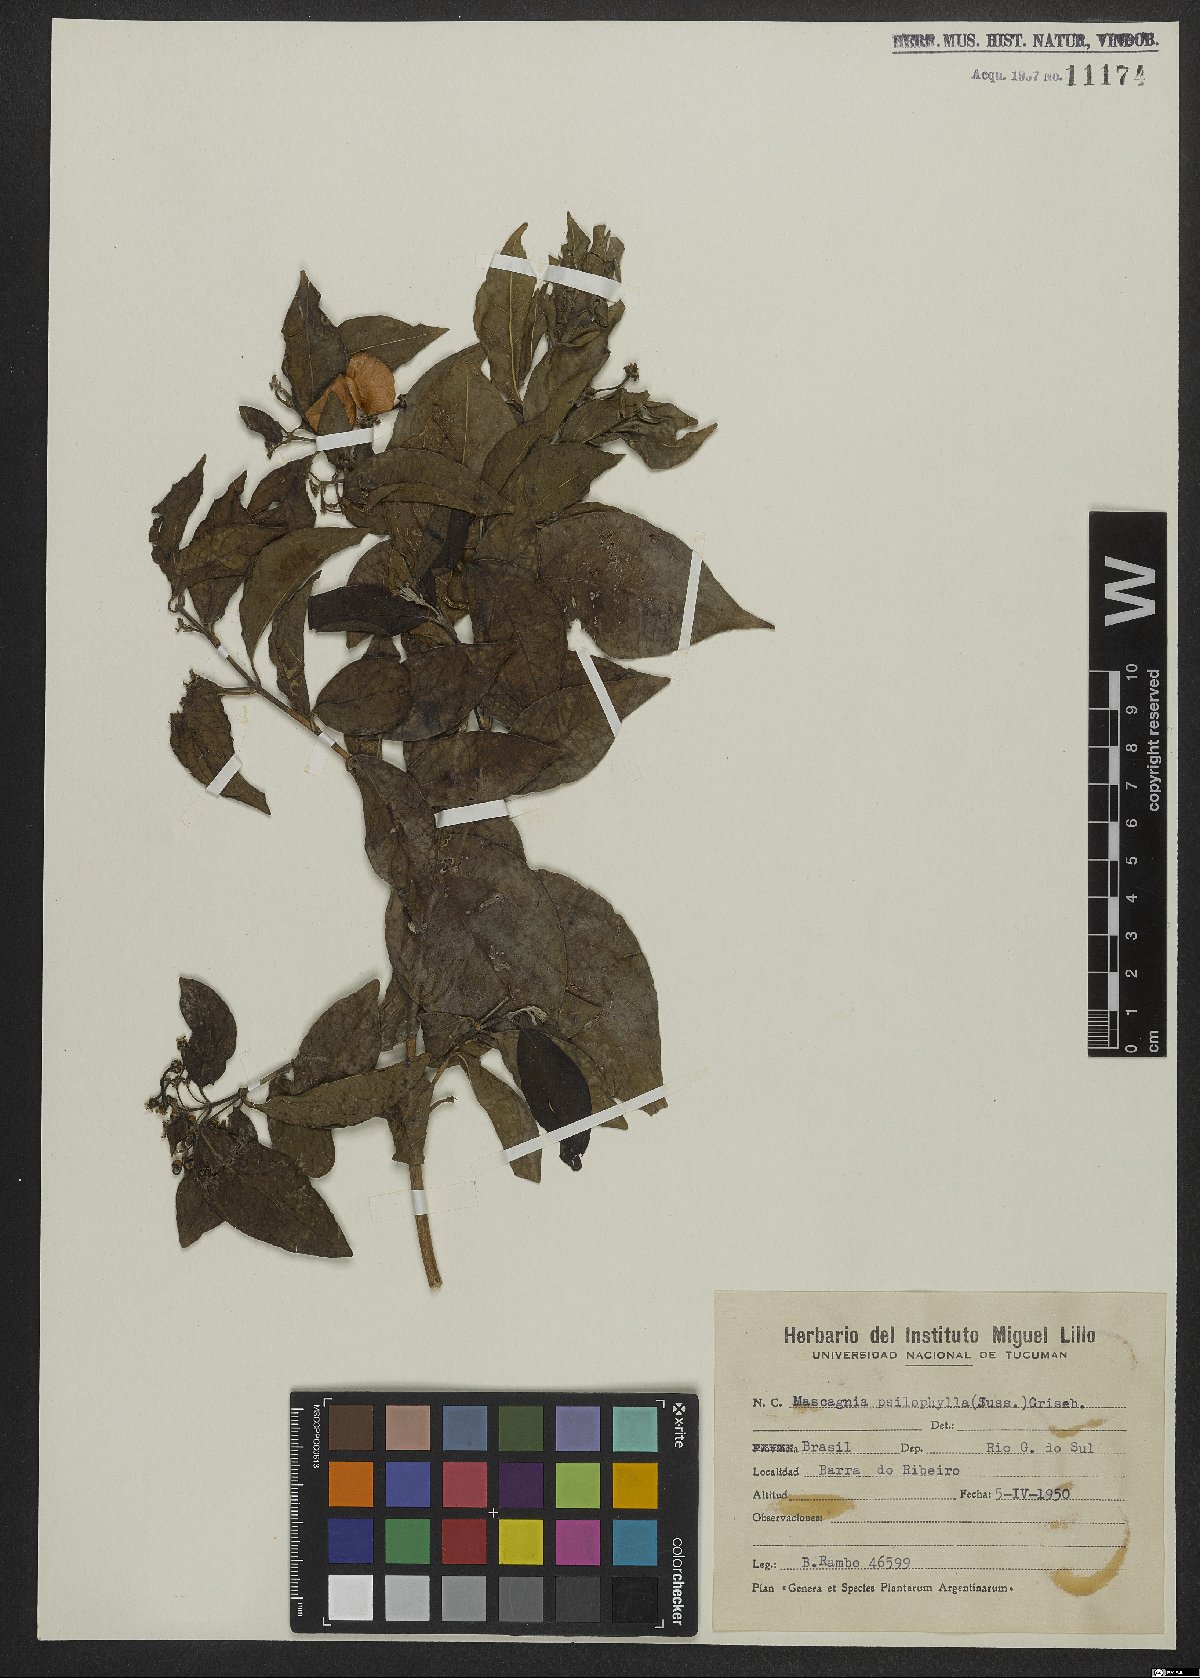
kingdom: Plantae
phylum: Tracheophyta
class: Magnoliopsida
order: Malpighiales
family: Malpighiaceae
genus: Callaeum
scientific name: Callaeum psilophyllum
